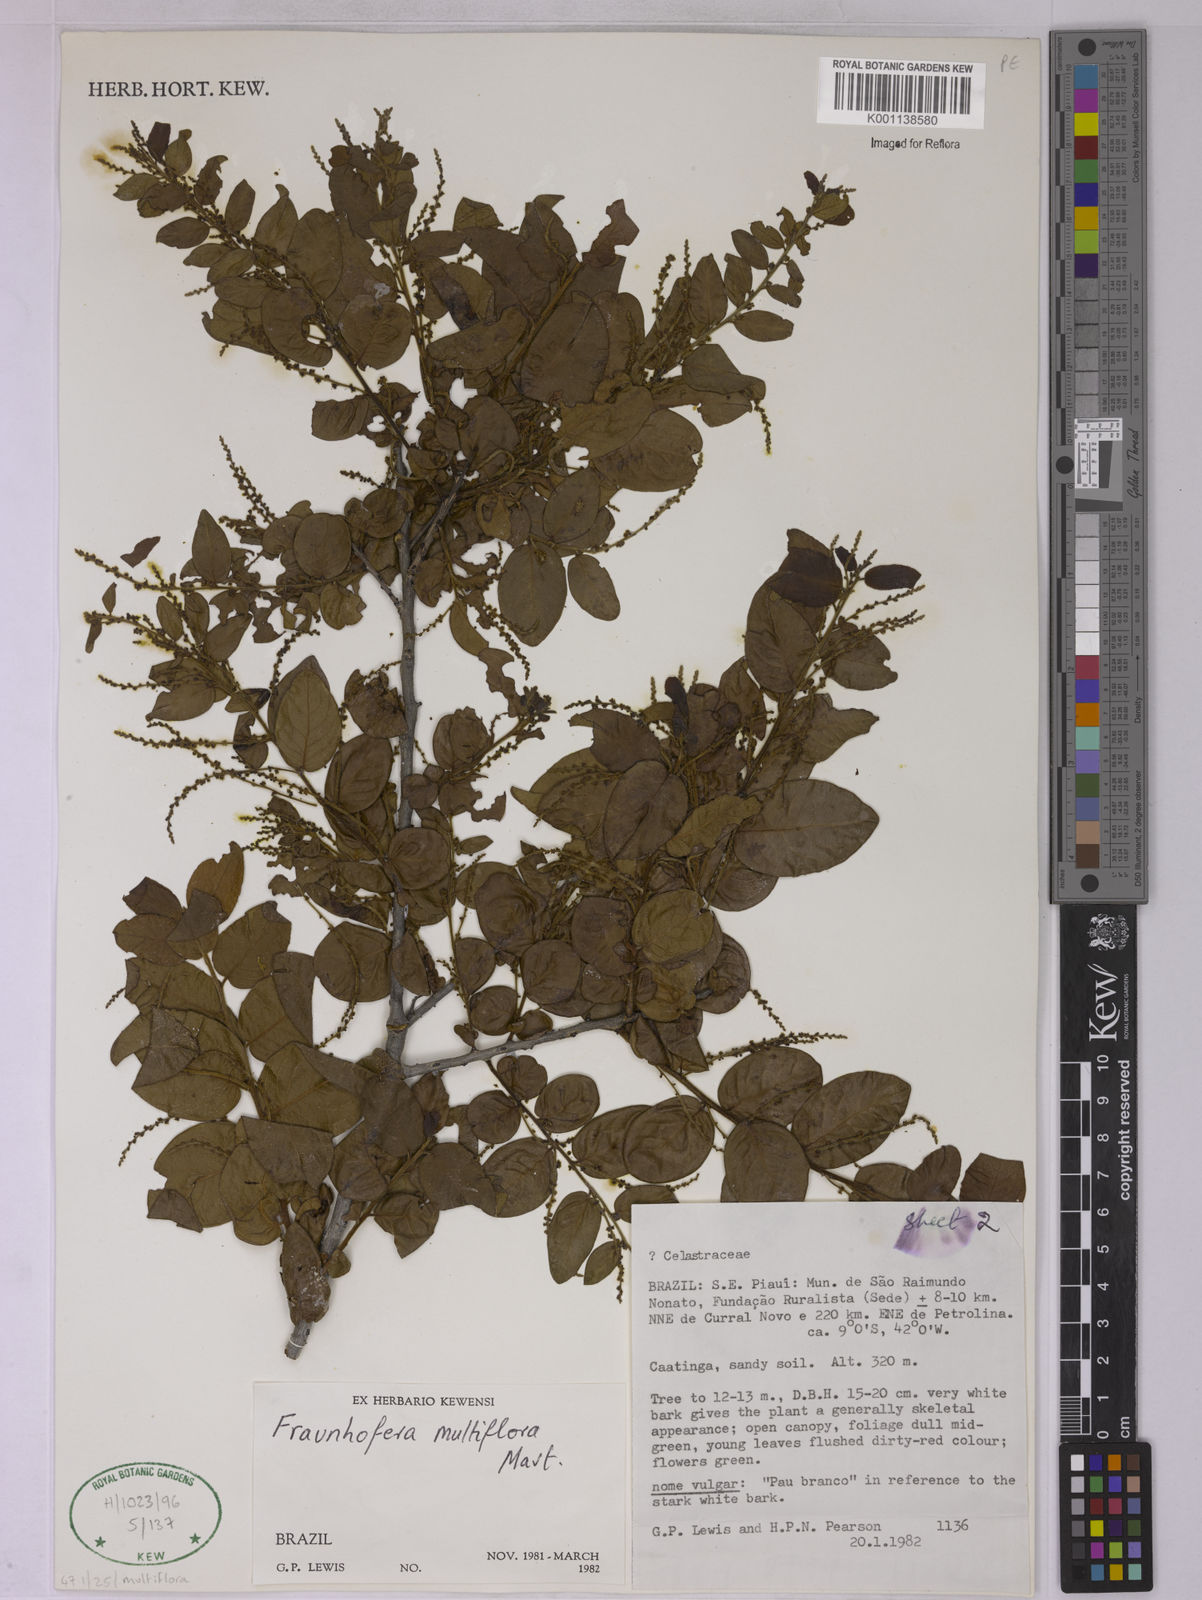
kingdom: Plantae
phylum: Tracheophyta
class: Magnoliopsida
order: Celastrales
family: Celastraceae
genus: Fraunhofera
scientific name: Fraunhofera multiflora
